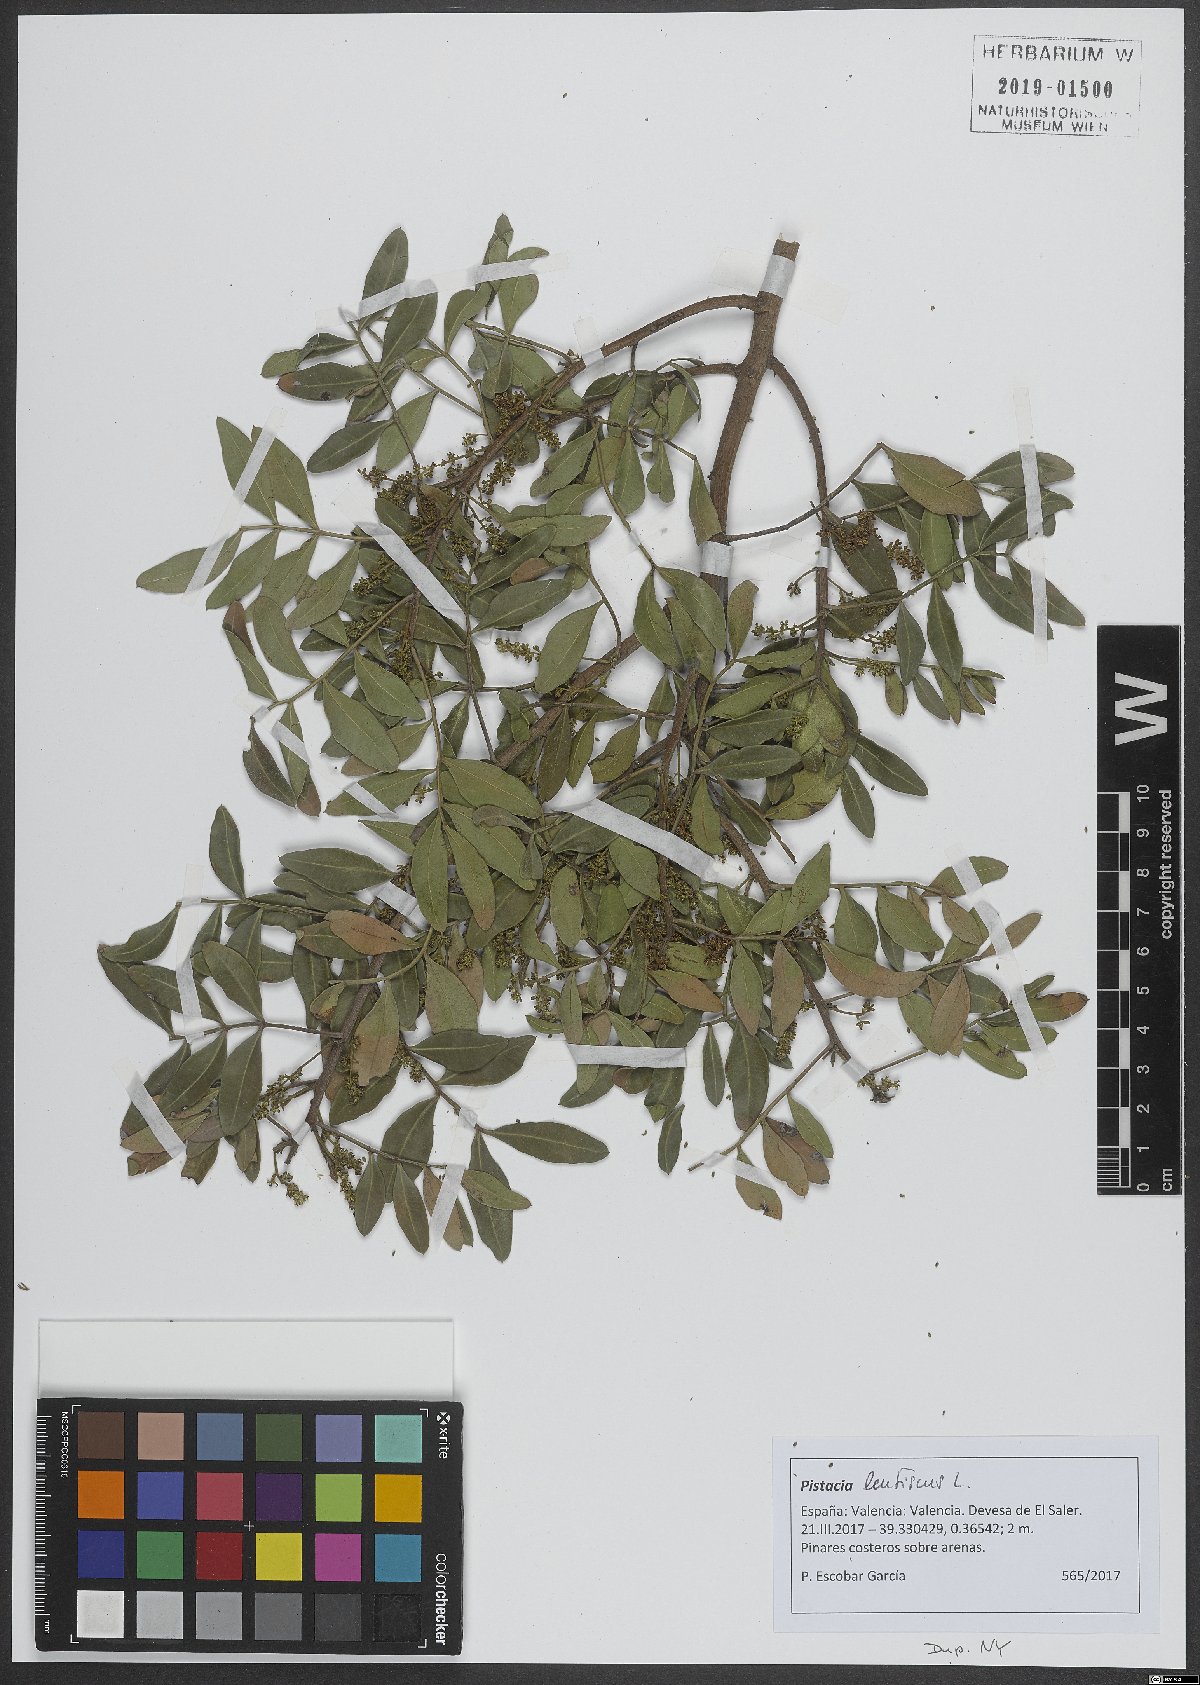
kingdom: Plantae
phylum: Tracheophyta
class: Magnoliopsida
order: Sapindales
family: Anacardiaceae
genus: Pistacia
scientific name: Pistacia lentiscus
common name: Lentisk
